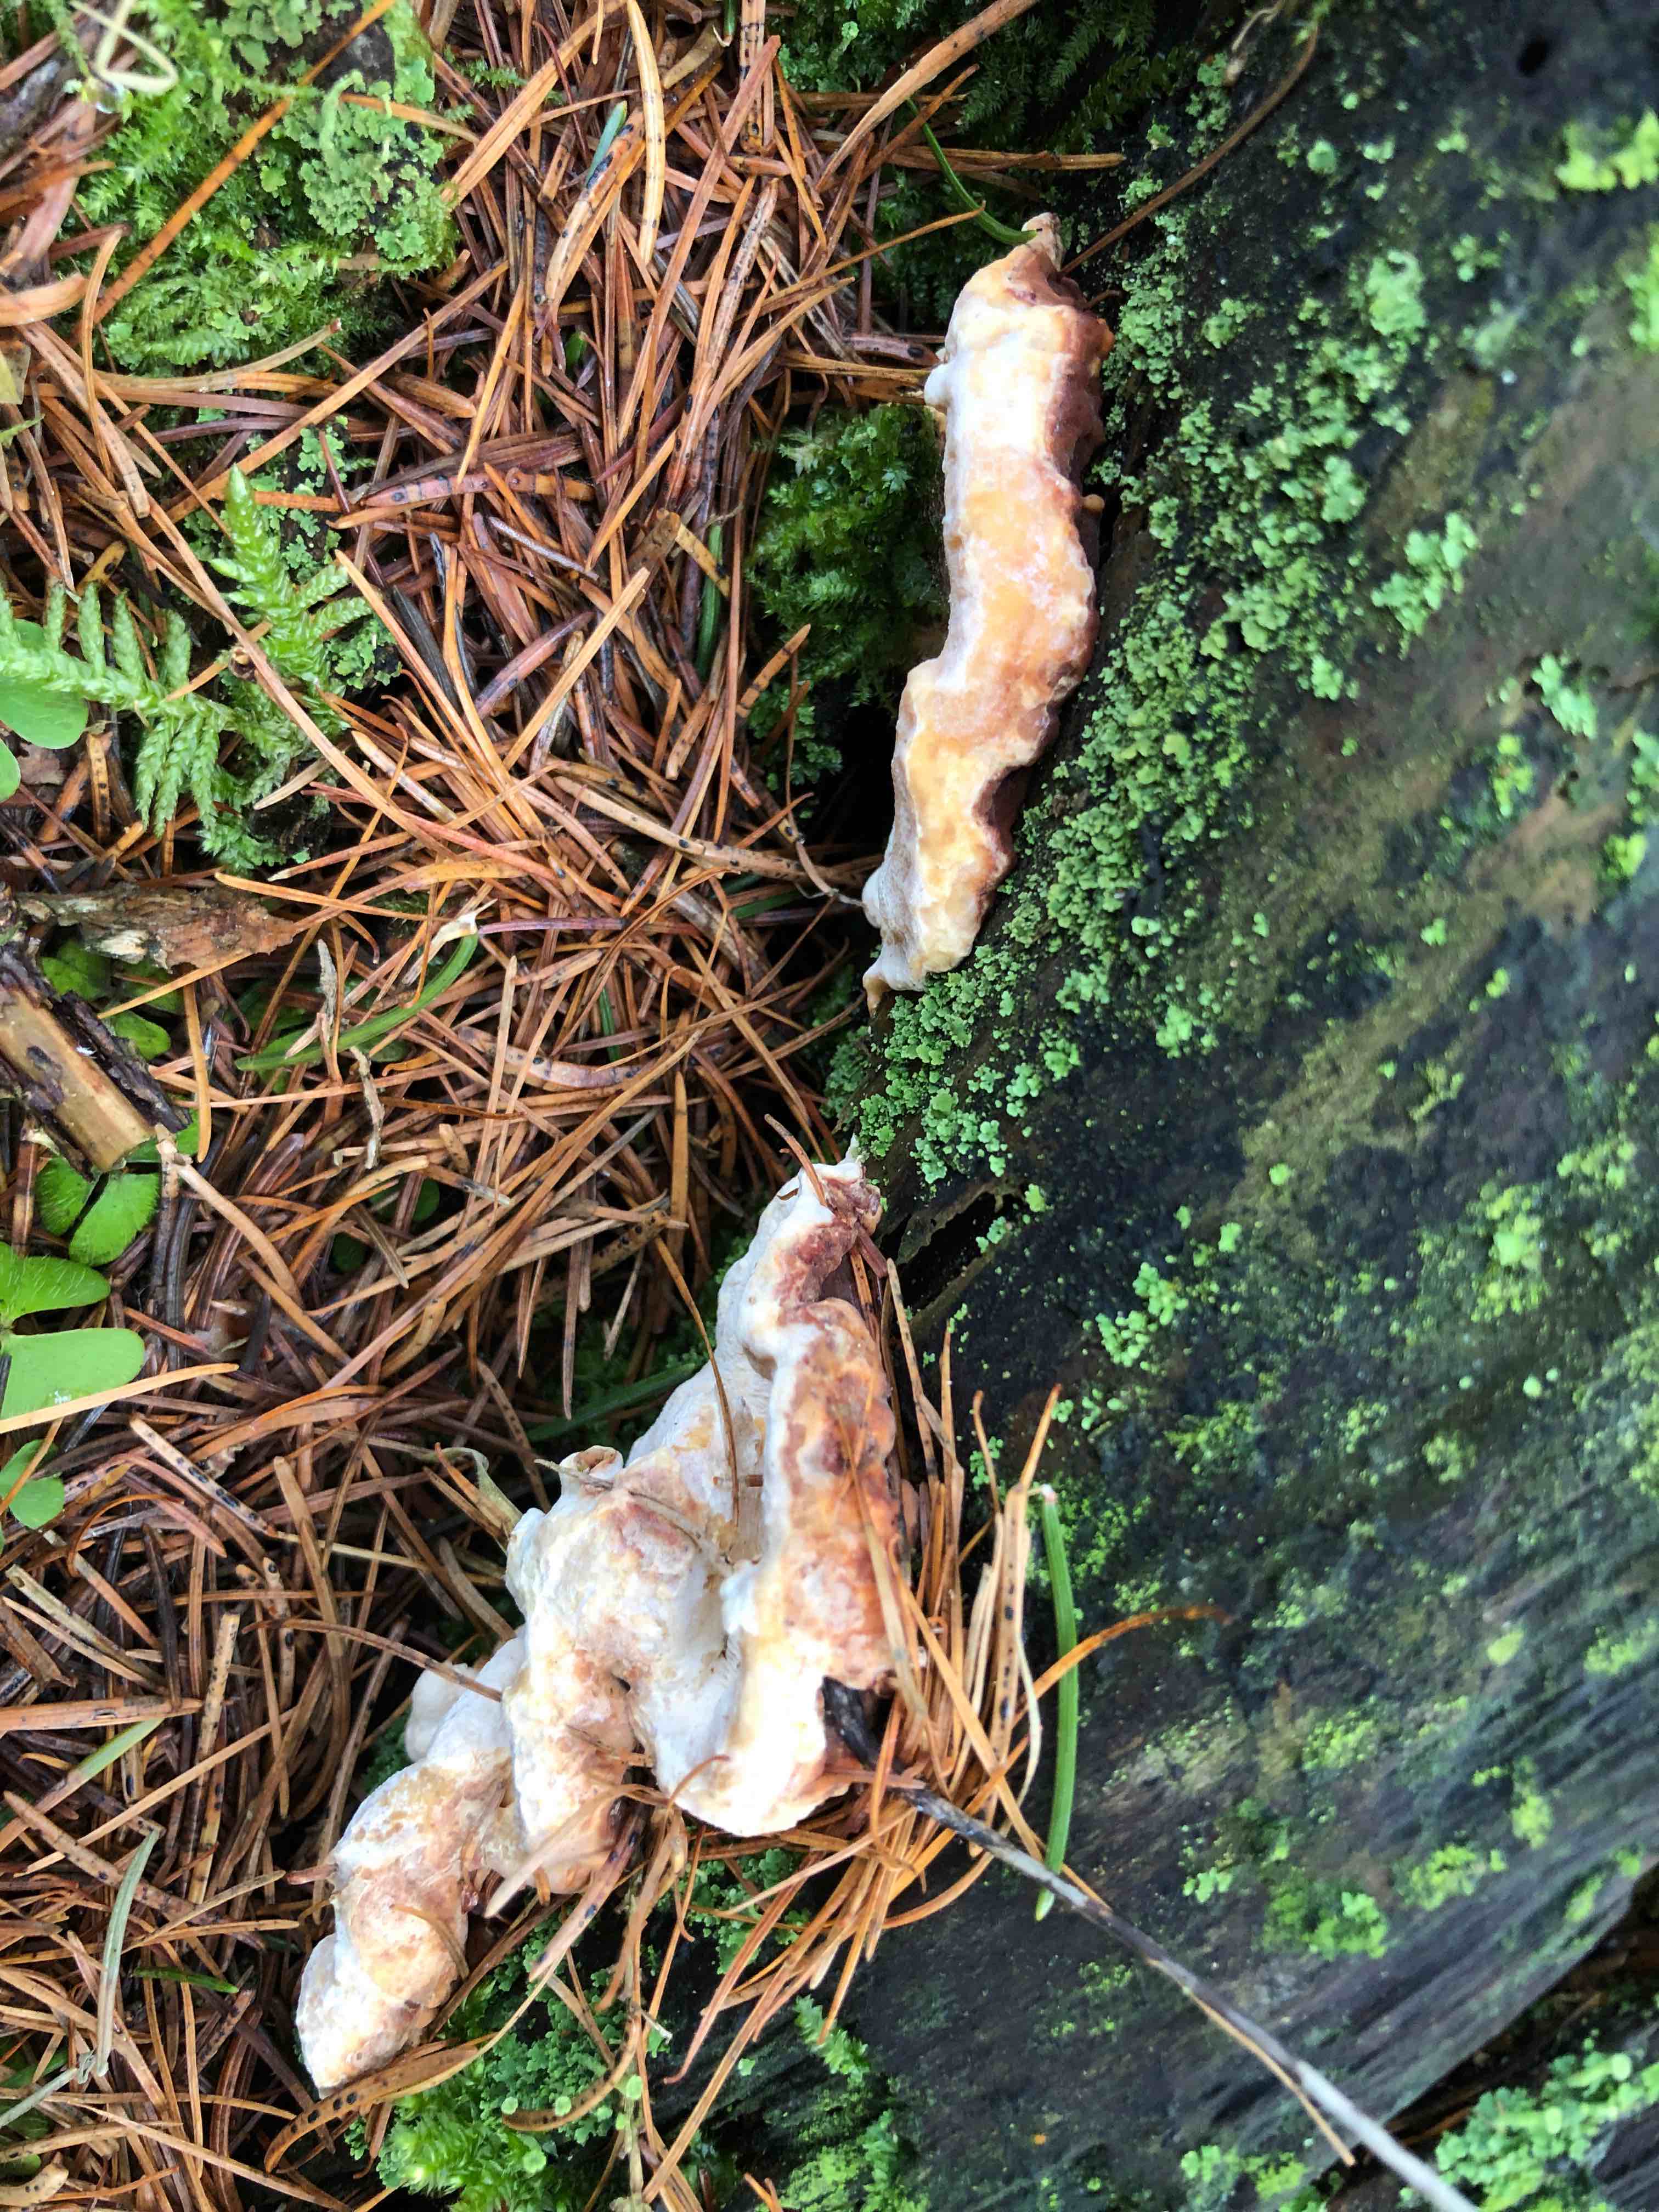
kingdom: Fungi
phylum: Basidiomycota
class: Agaricomycetes
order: Russulales
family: Bondarzewiaceae
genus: Heterobasidion
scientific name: Heterobasidion annosum
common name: almindelig rodfordærver
